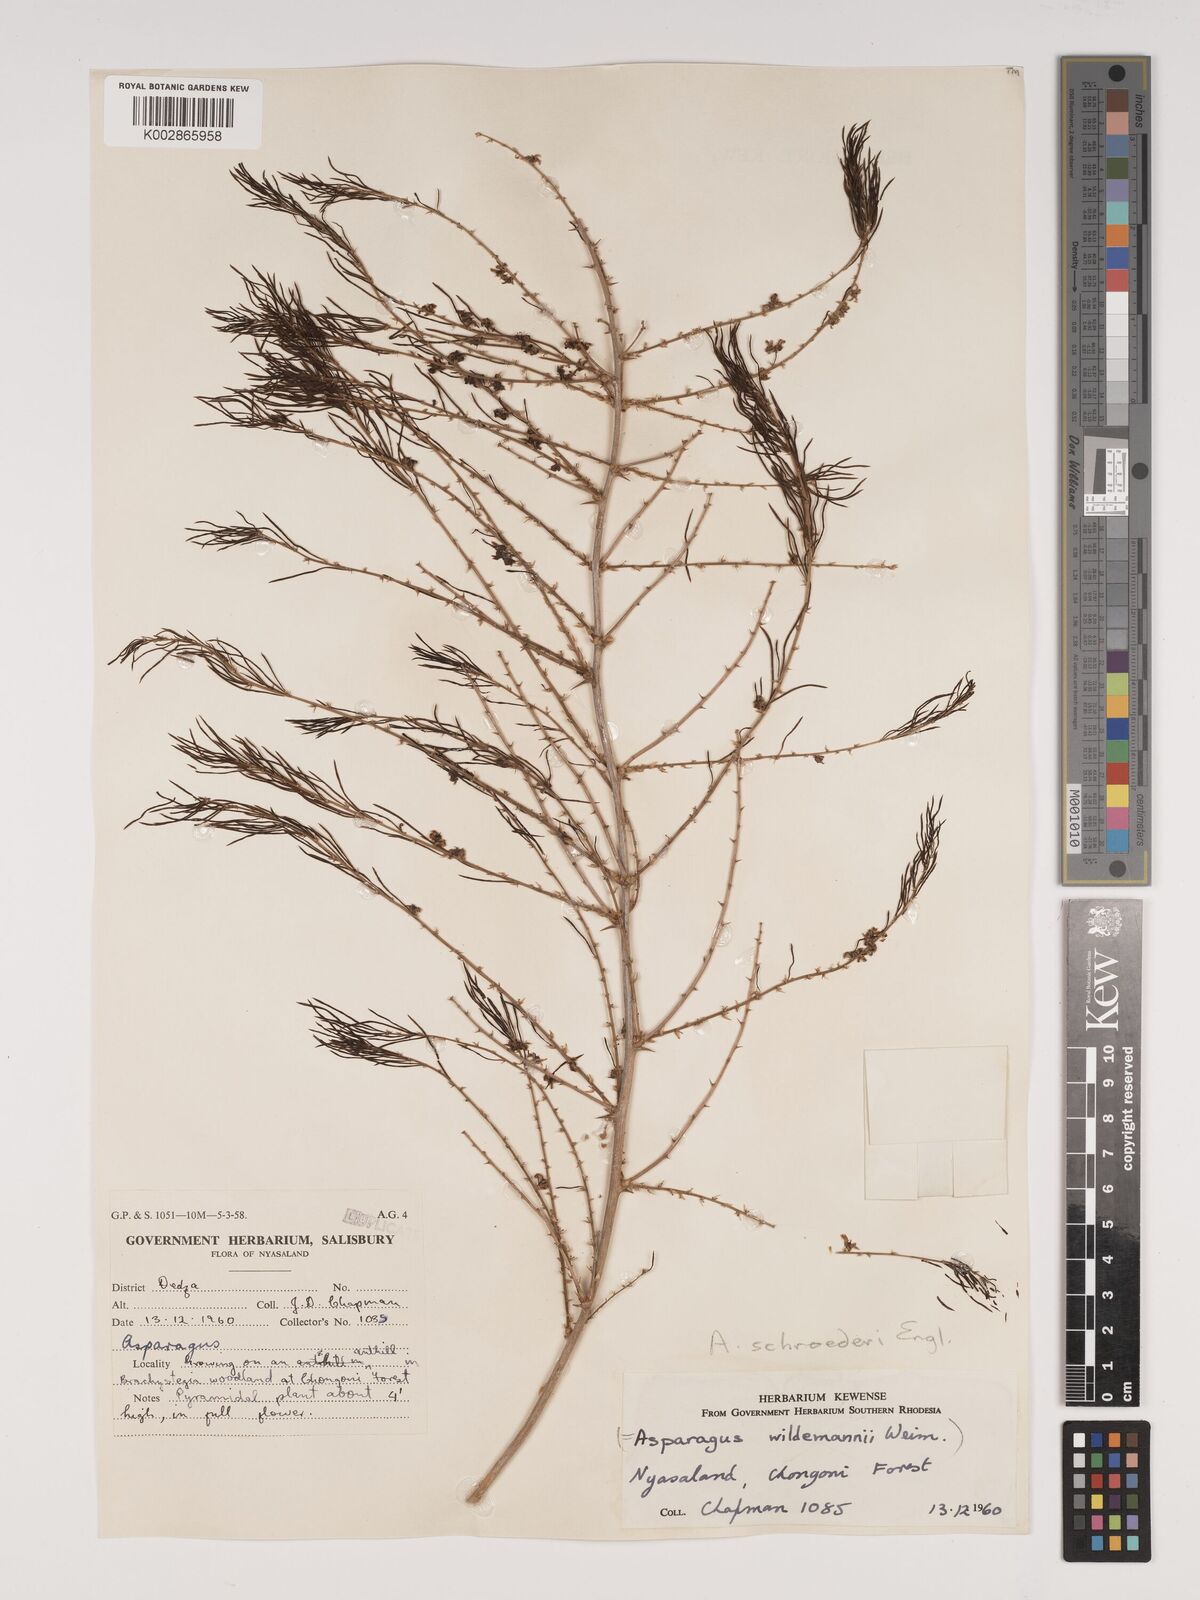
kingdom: Plantae
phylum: Tracheophyta
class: Liliopsida
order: Asparagales
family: Asparagaceae
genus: Asparagus
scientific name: Asparagus schroederi
